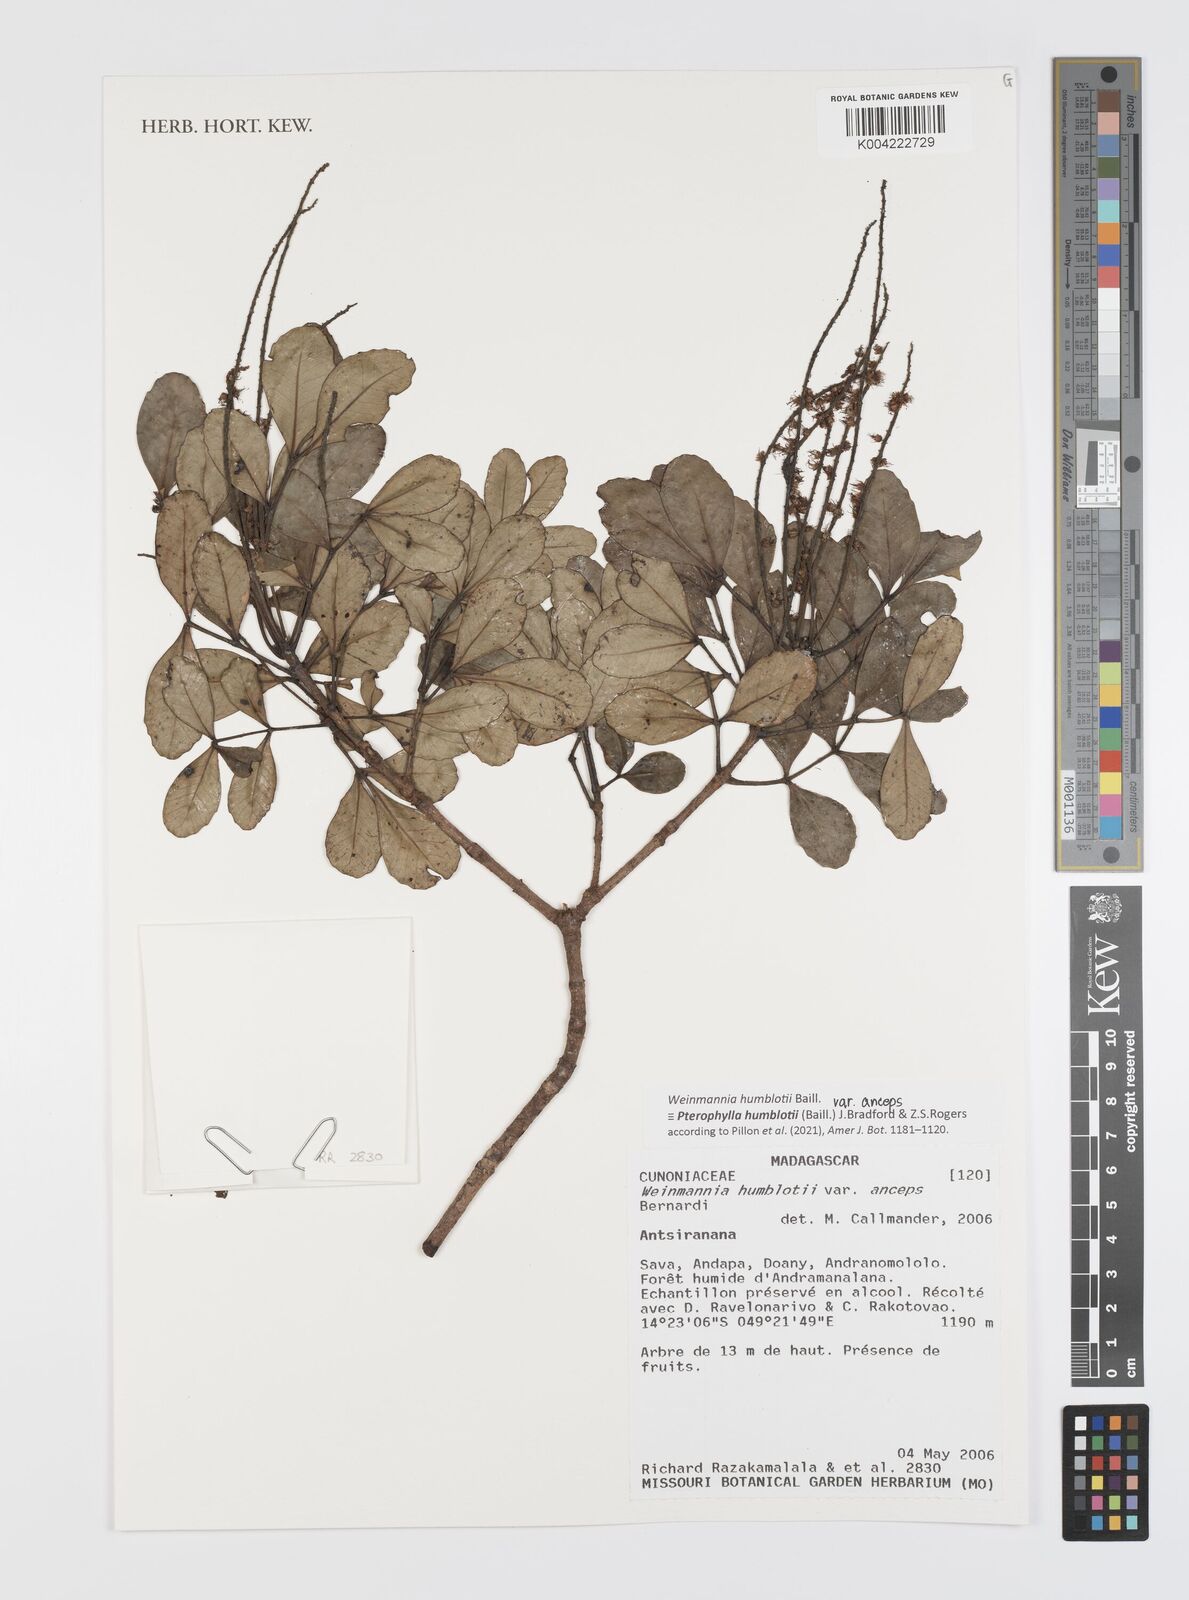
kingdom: Plantae
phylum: Tracheophyta
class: Magnoliopsida
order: Oxalidales
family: Cunoniaceae
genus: Pterophylla
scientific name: Pterophylla
